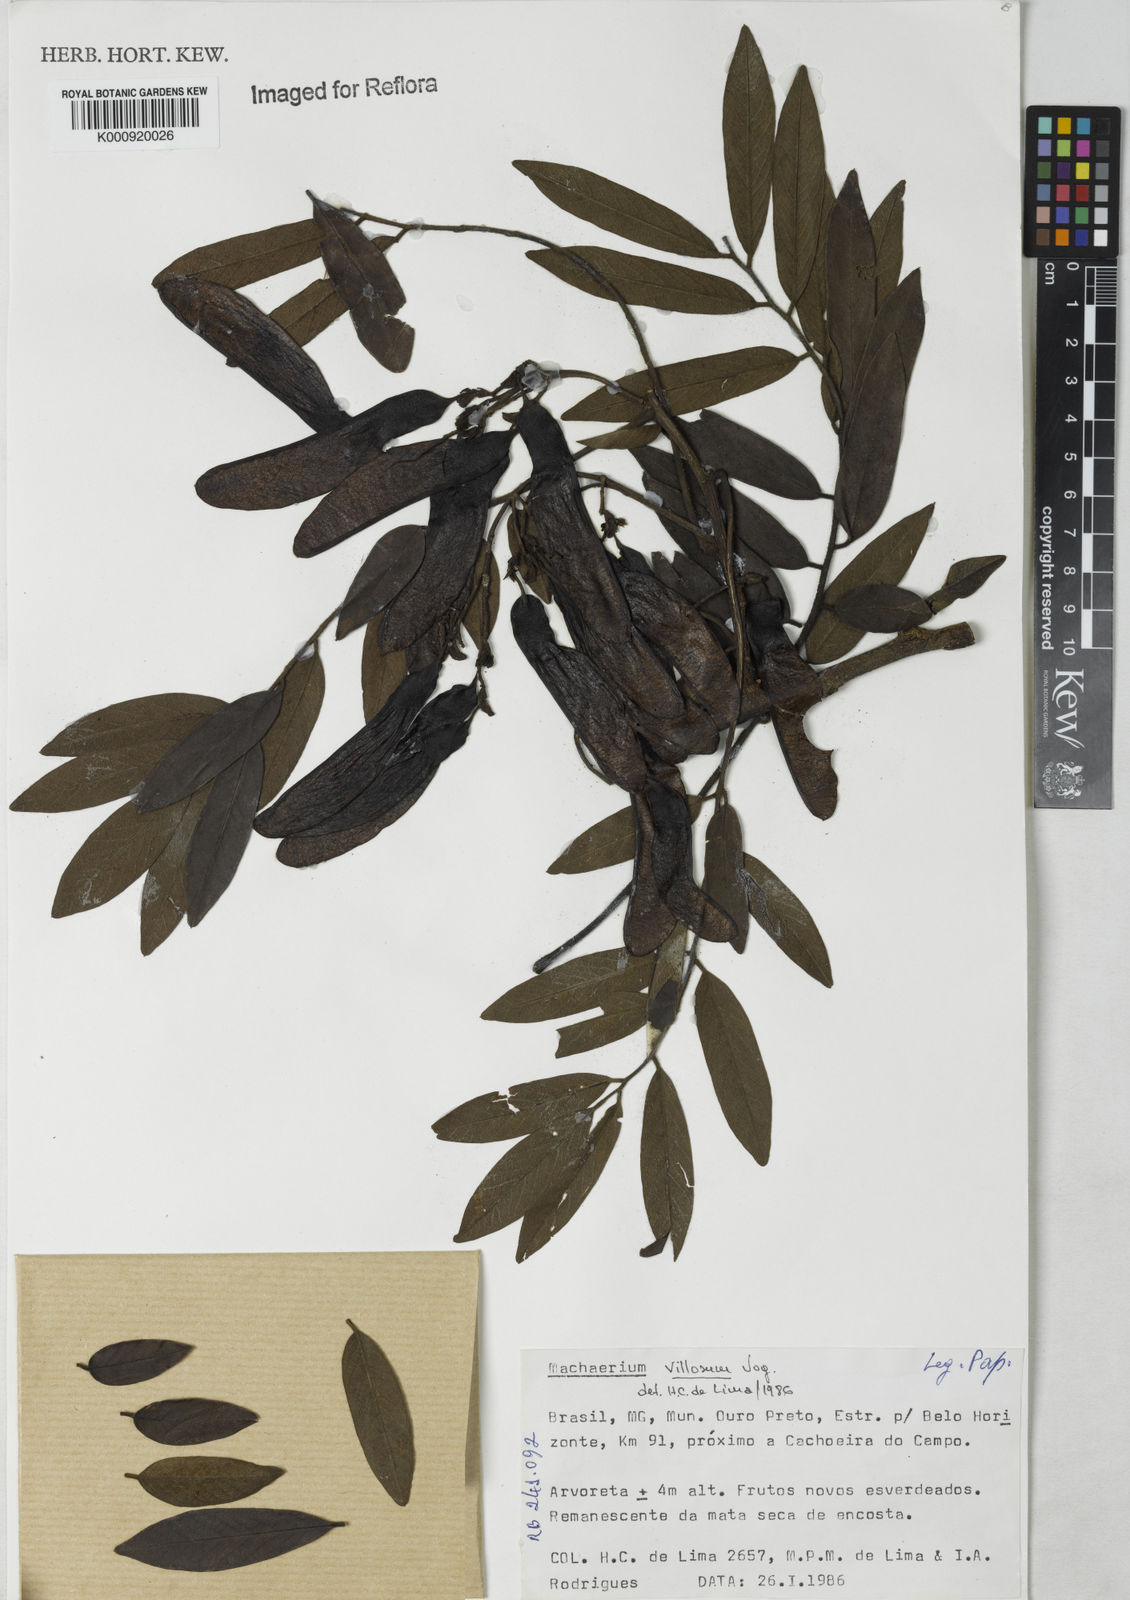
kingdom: Plantae
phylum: Tracheophyta
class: Magnoliopsida
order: Fabales
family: Fabaceae
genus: Machaerium
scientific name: Machaerium villosum
